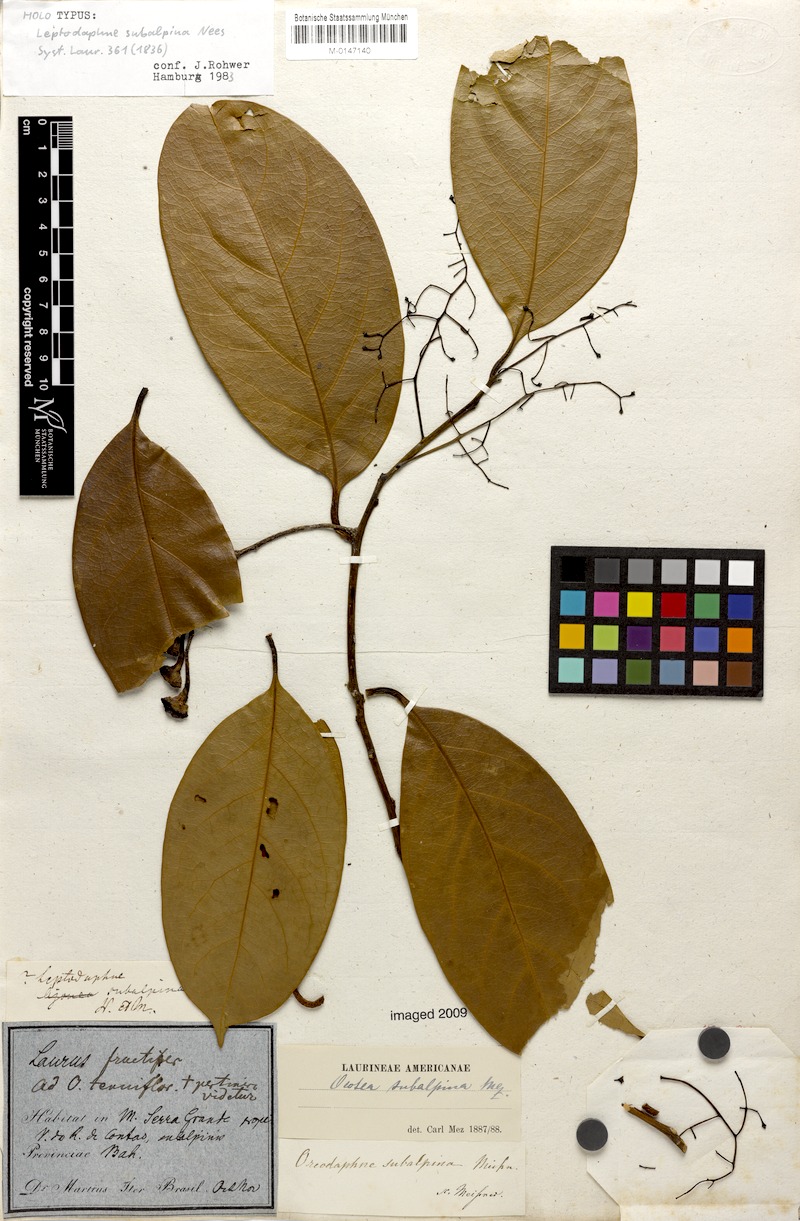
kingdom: Plantae
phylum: Tracheophyta
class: Magnoliopsida
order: Laurales
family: Lauraceae
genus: Ocotea
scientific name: Ocotea leptobotra
